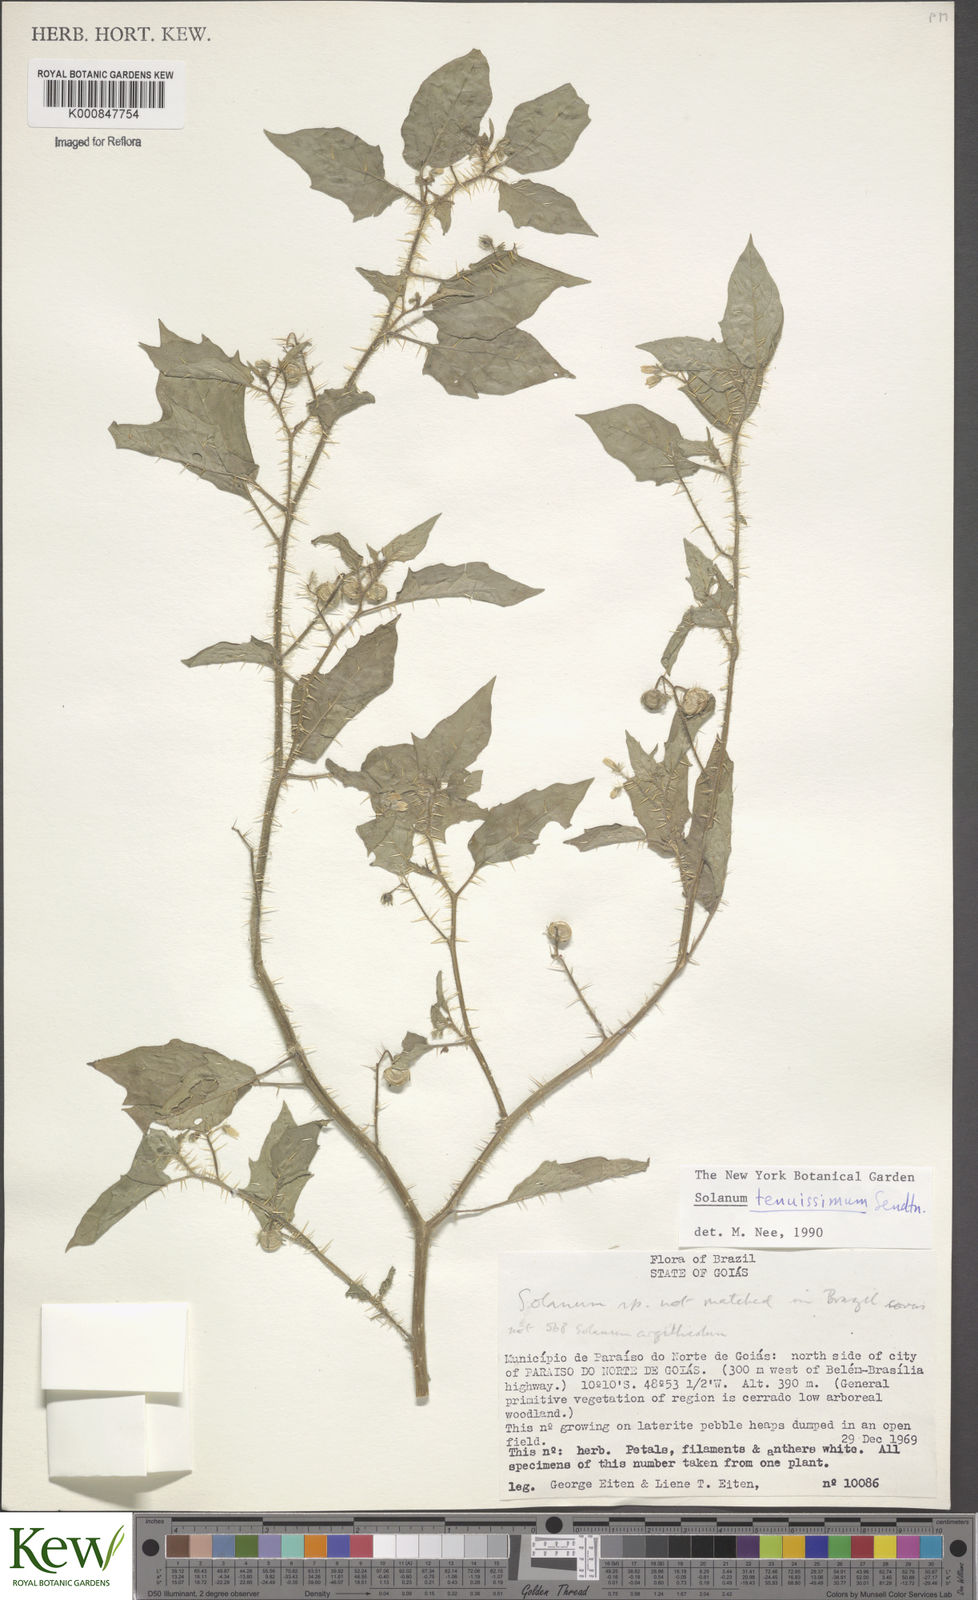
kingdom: Plantae
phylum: Tracheophyta
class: Magnoliopsida
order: Solanales
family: Solanaceae
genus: Solanum
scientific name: Solanum tenuissimum
